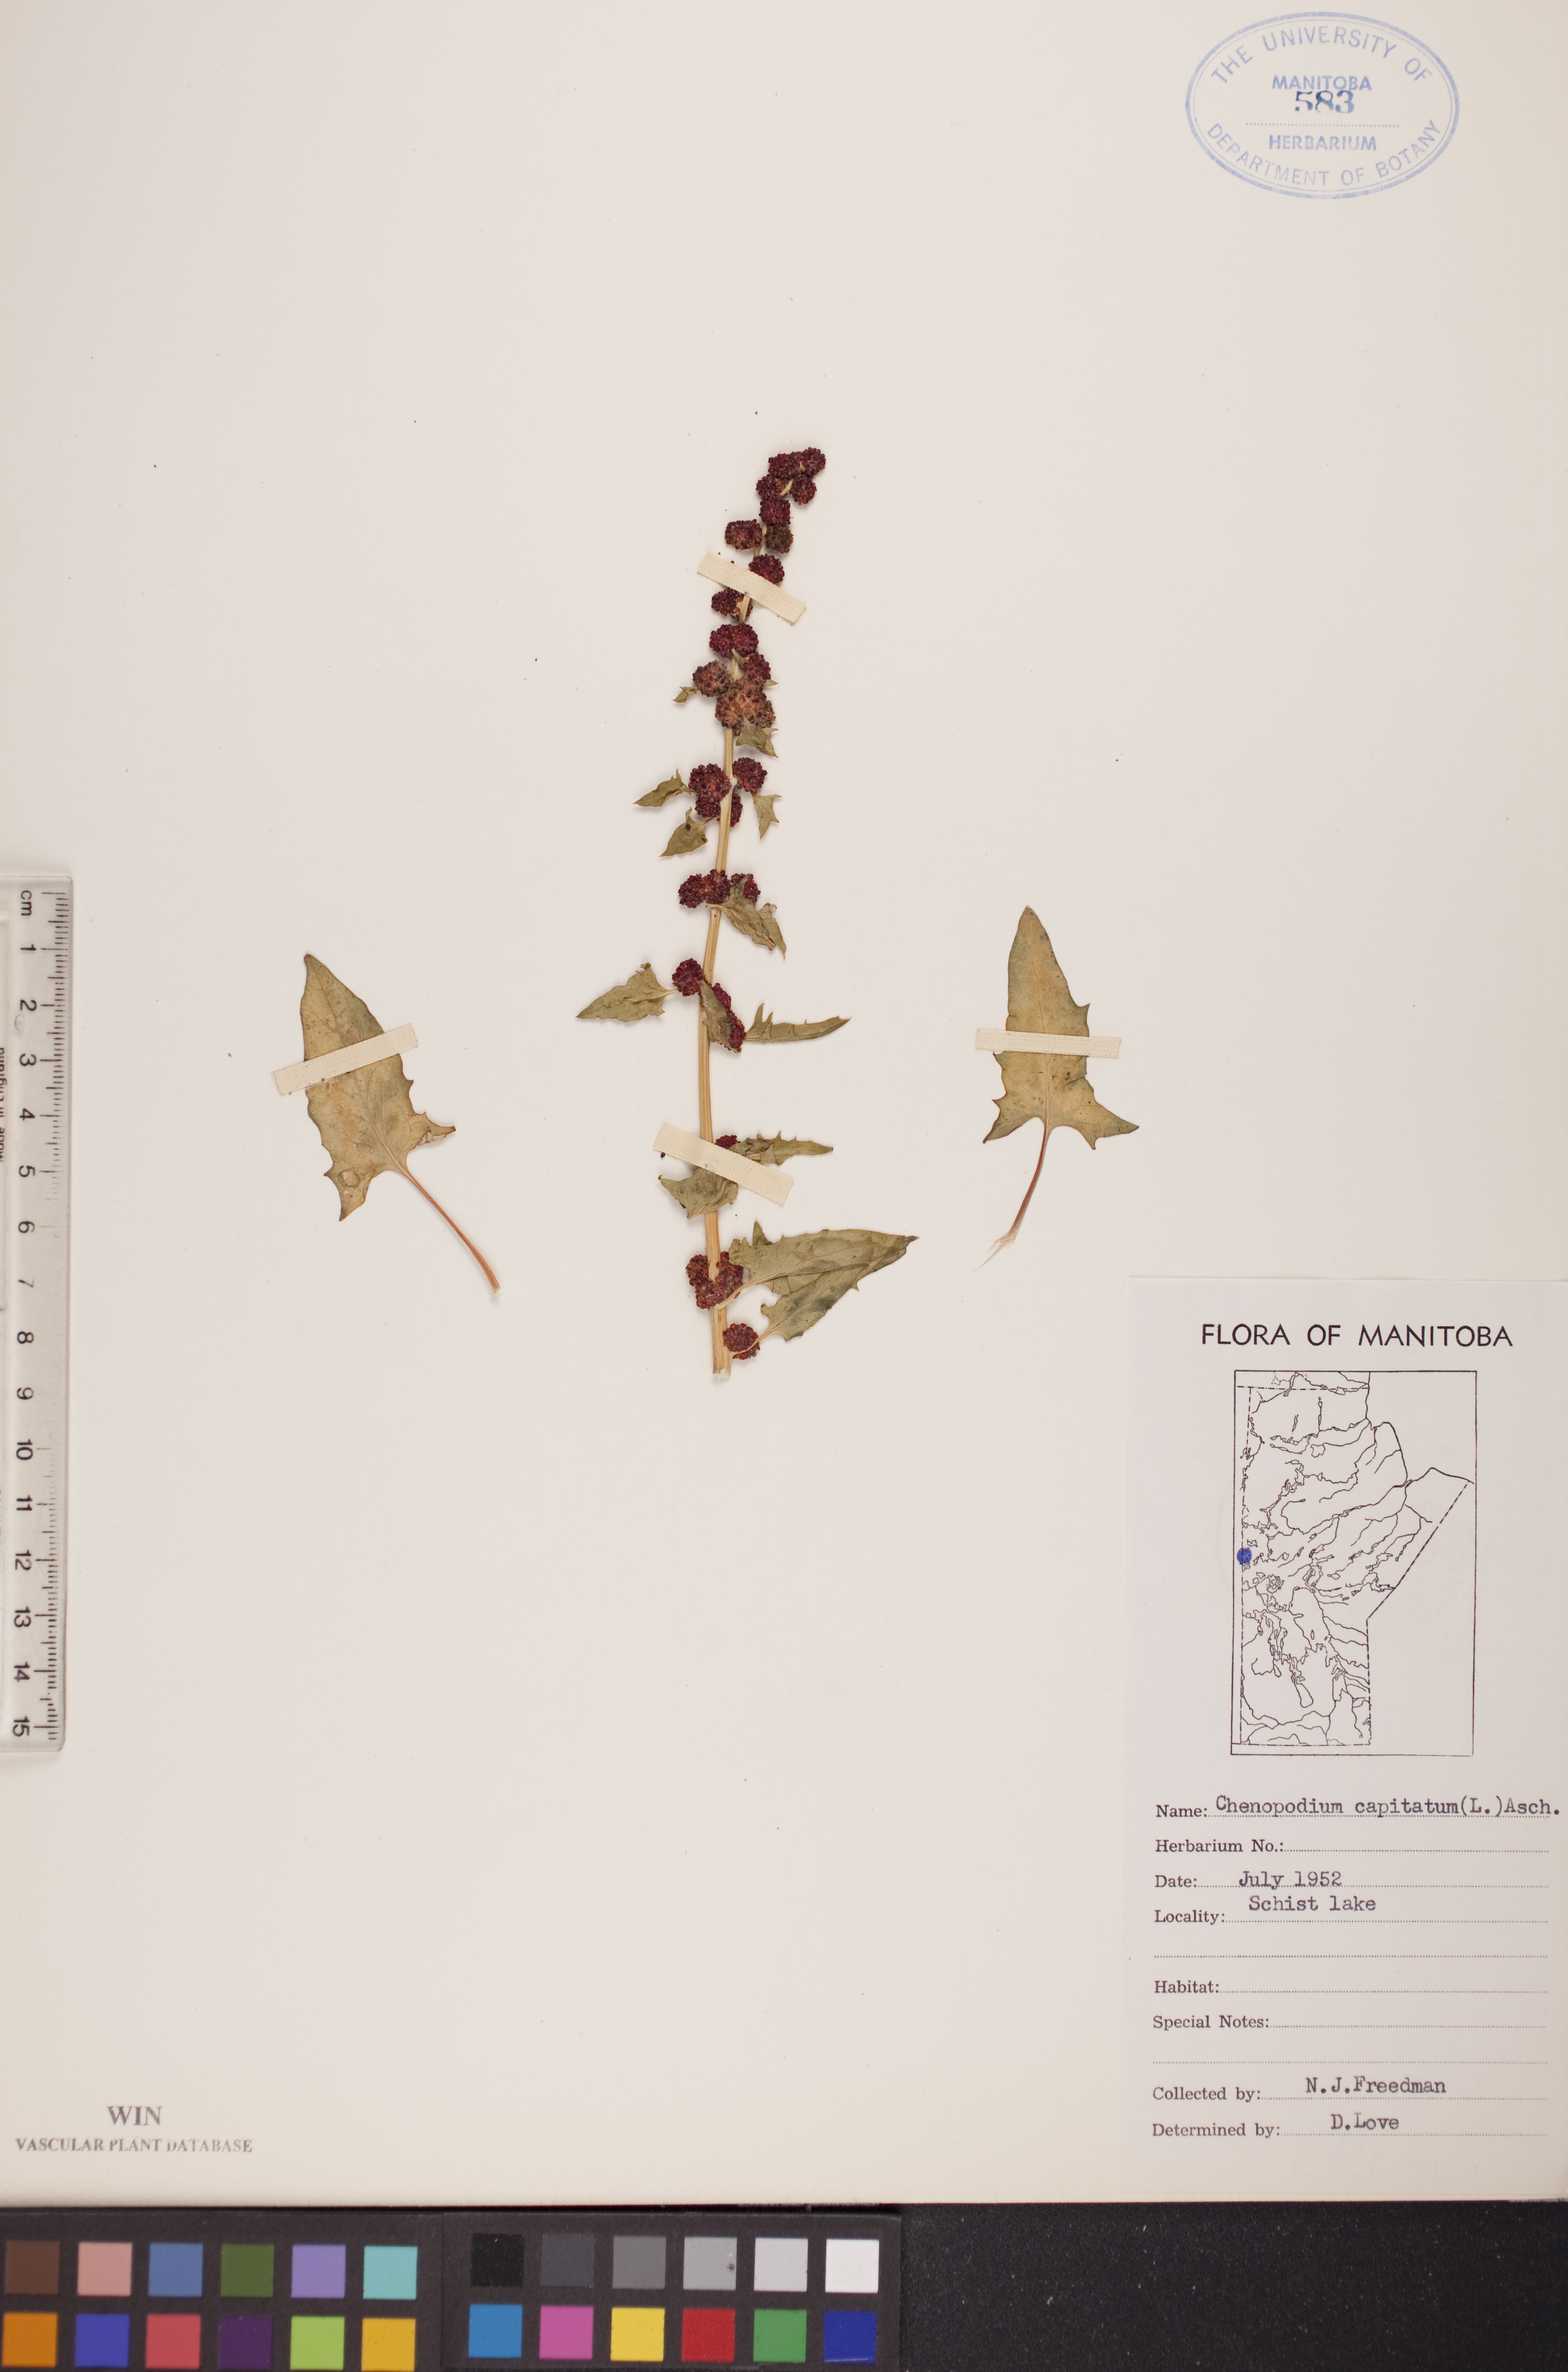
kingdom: Plantae
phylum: Tracheophyta
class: Magnoliopsida
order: Caryophyllales
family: Amaranthaceae
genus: Blitum
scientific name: Blitum capitatum
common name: Strawberry-blight
